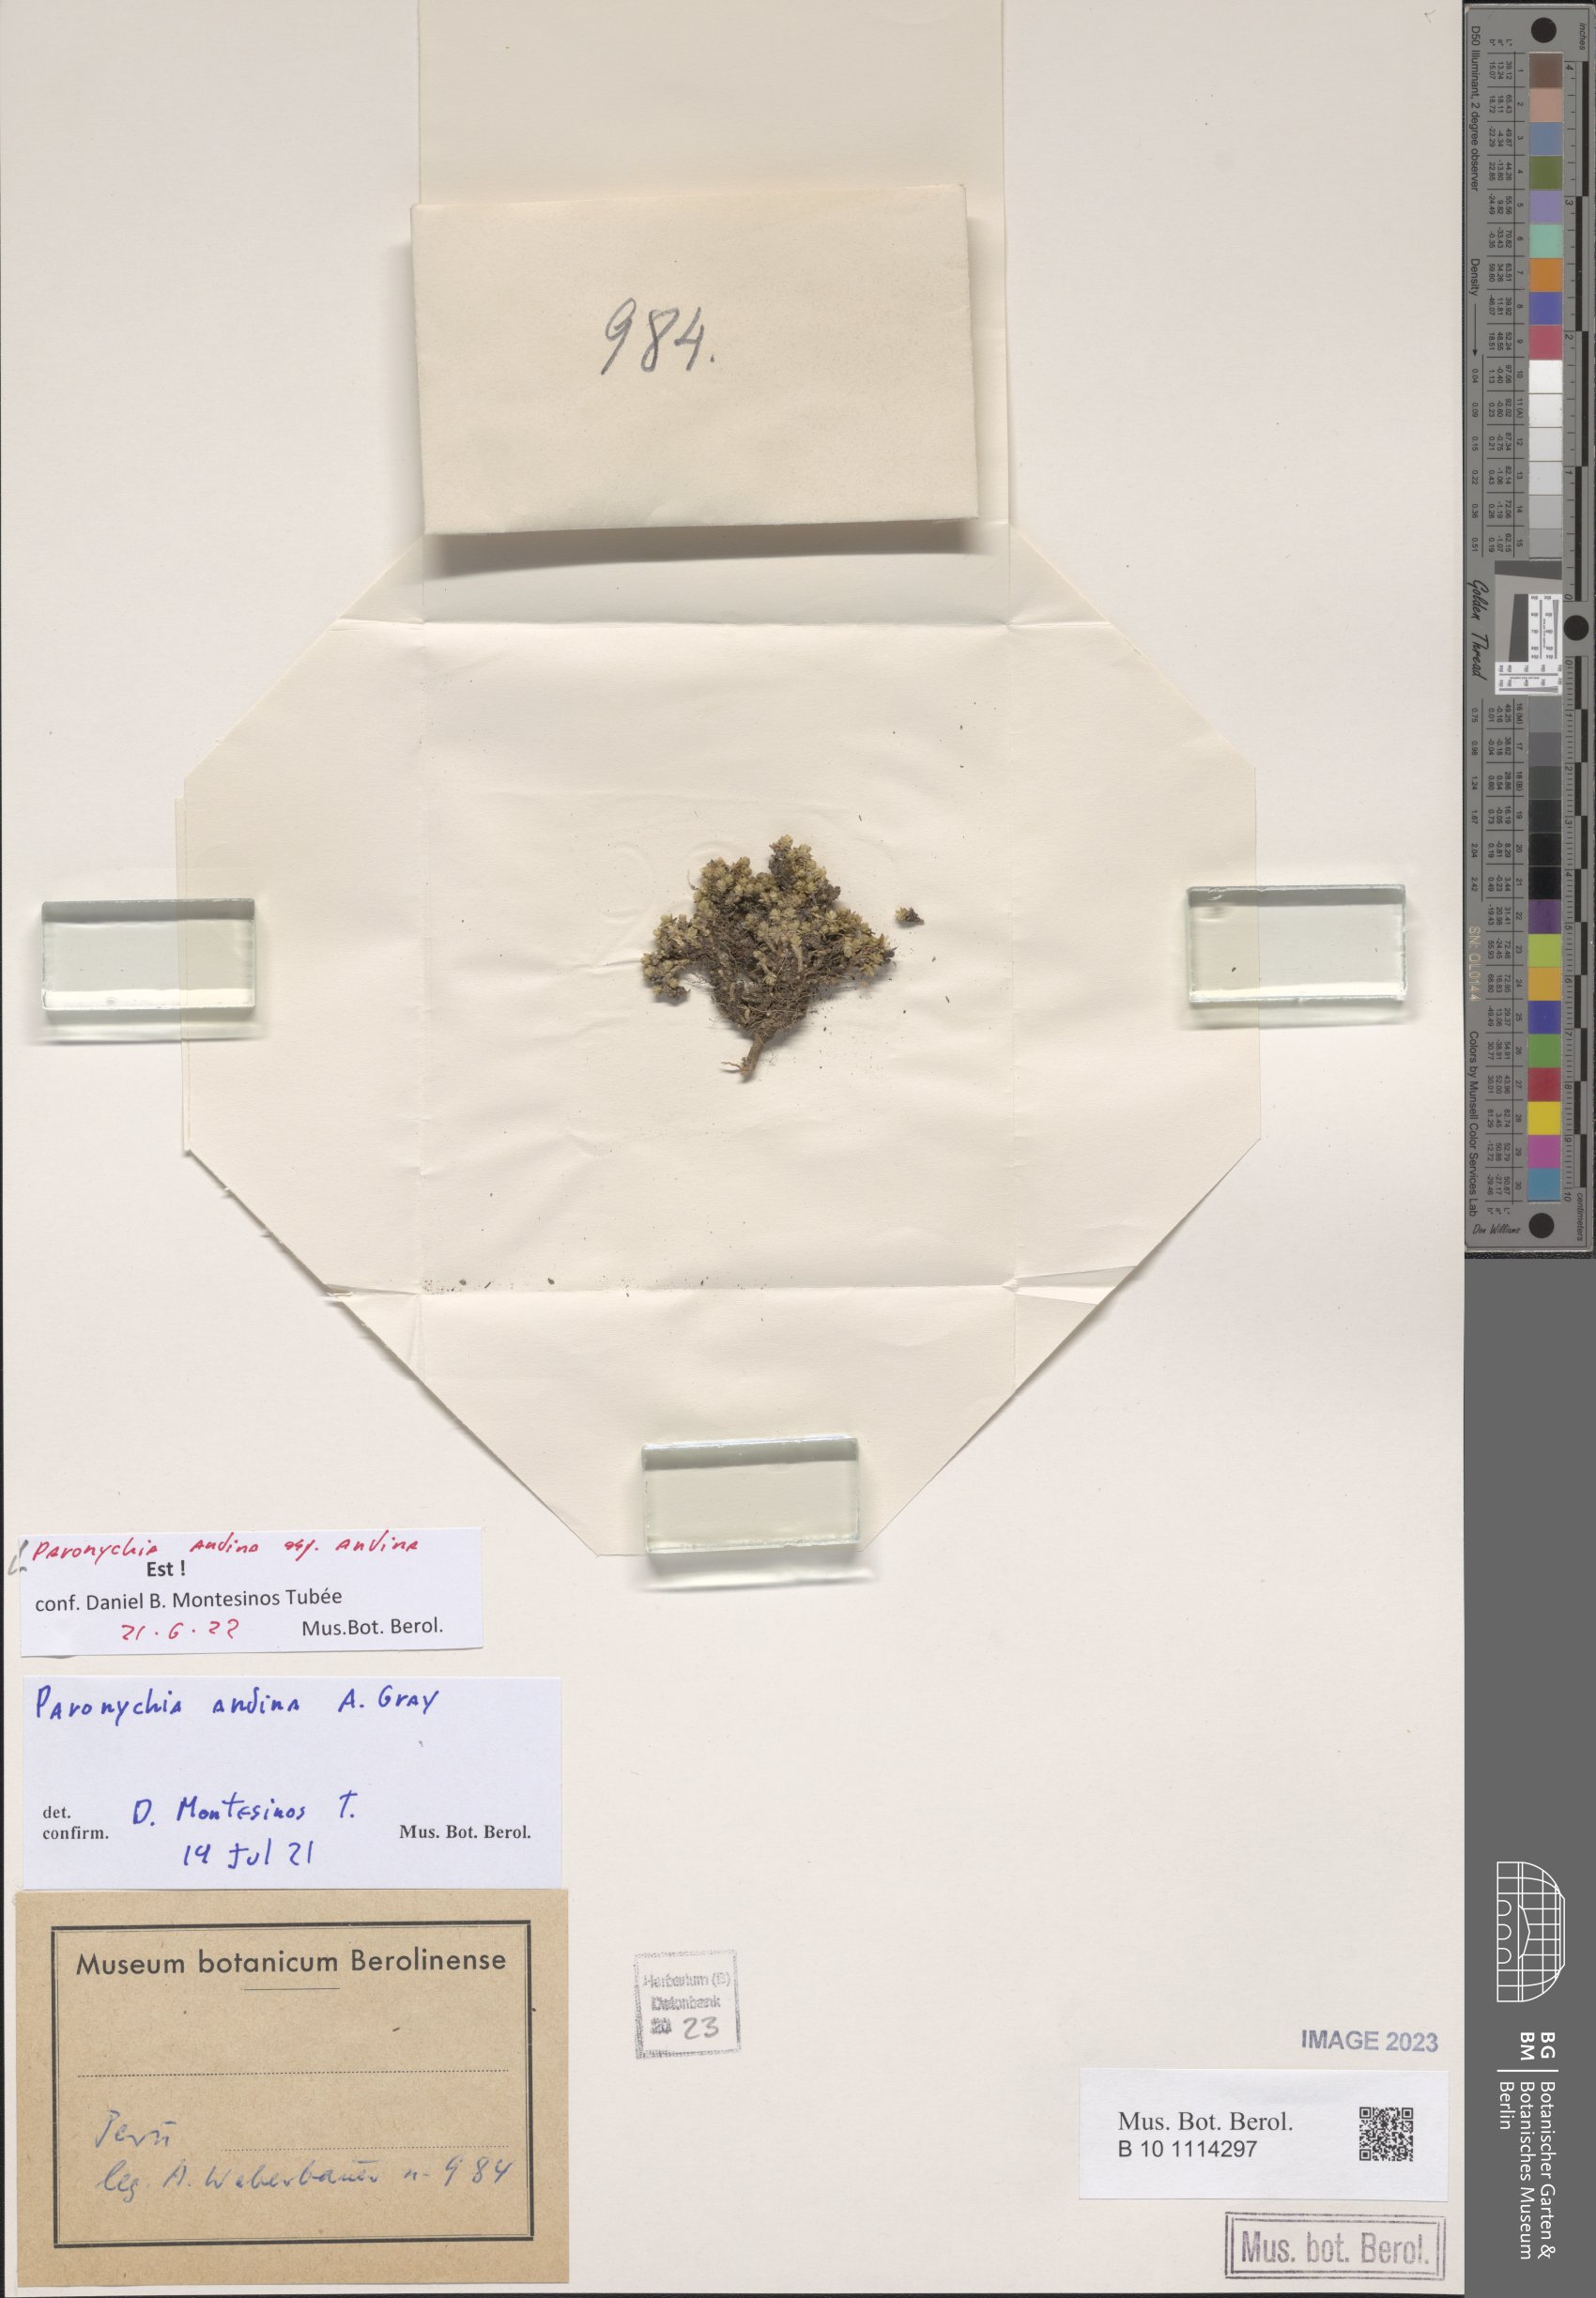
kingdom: Plantae
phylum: Tracheophyta
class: Magnoliopsida
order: Caryophyllales
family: Caryophyllaceae
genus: Paronychia
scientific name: Paronychia andina
